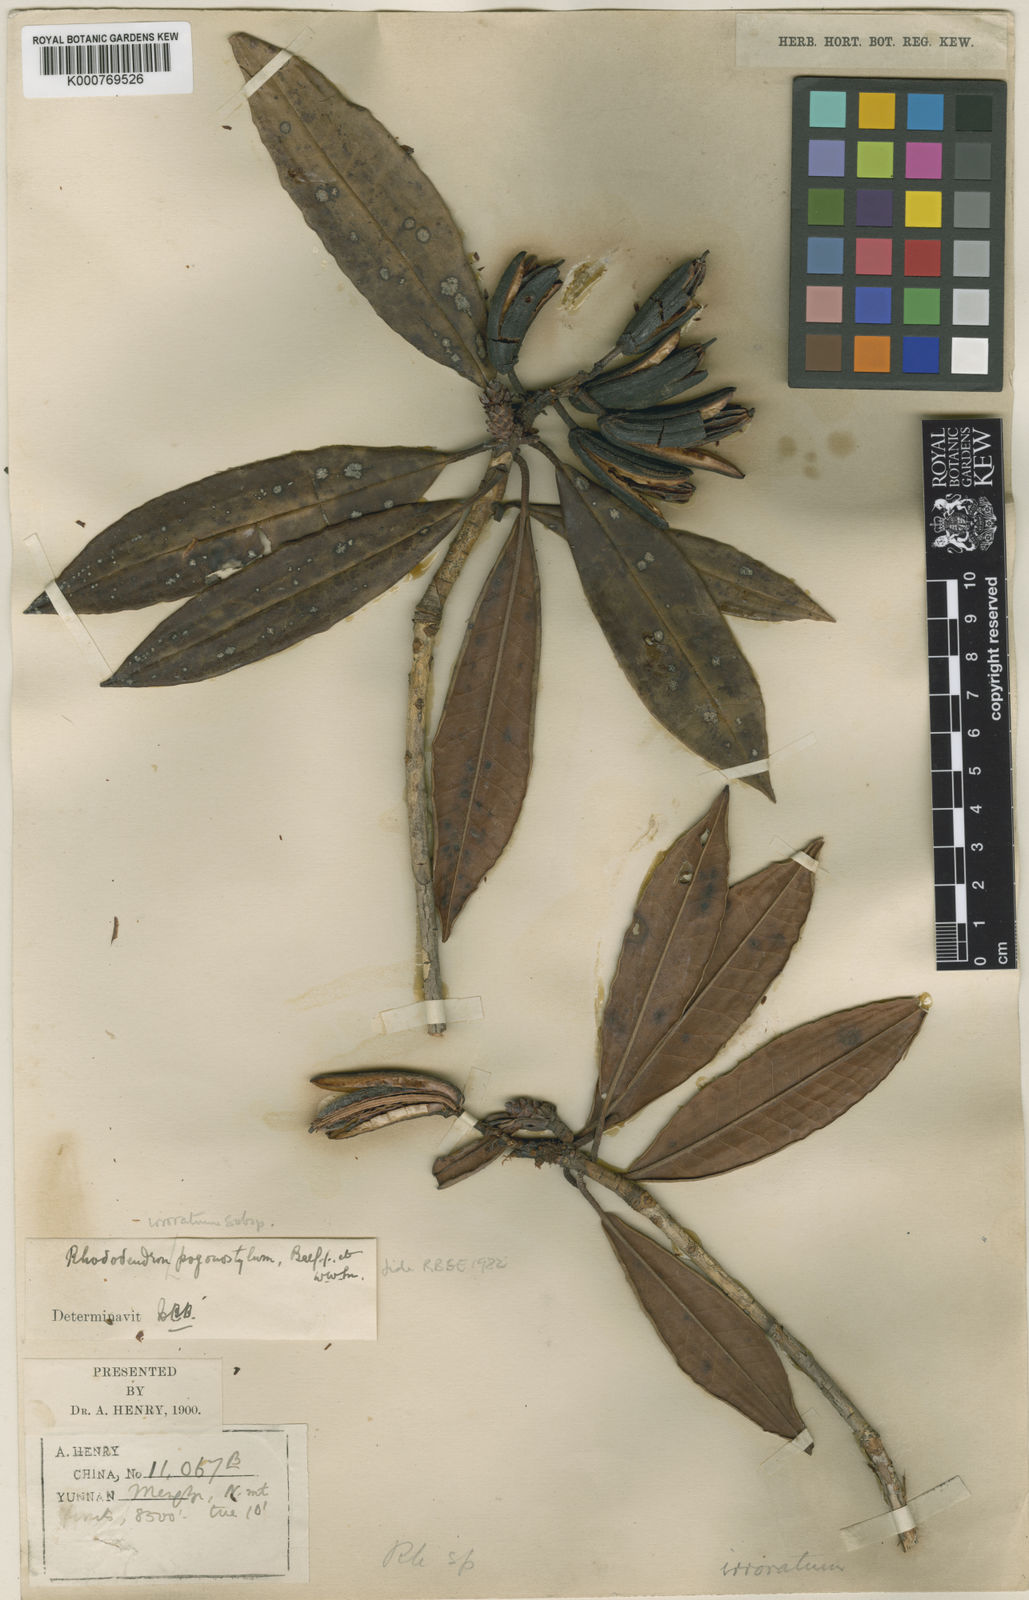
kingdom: Plantae
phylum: Tracheophyta
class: Magnoliopsida
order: Ericales
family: Ericaceae
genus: Rhododendron
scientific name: Rhododendron irroratum
